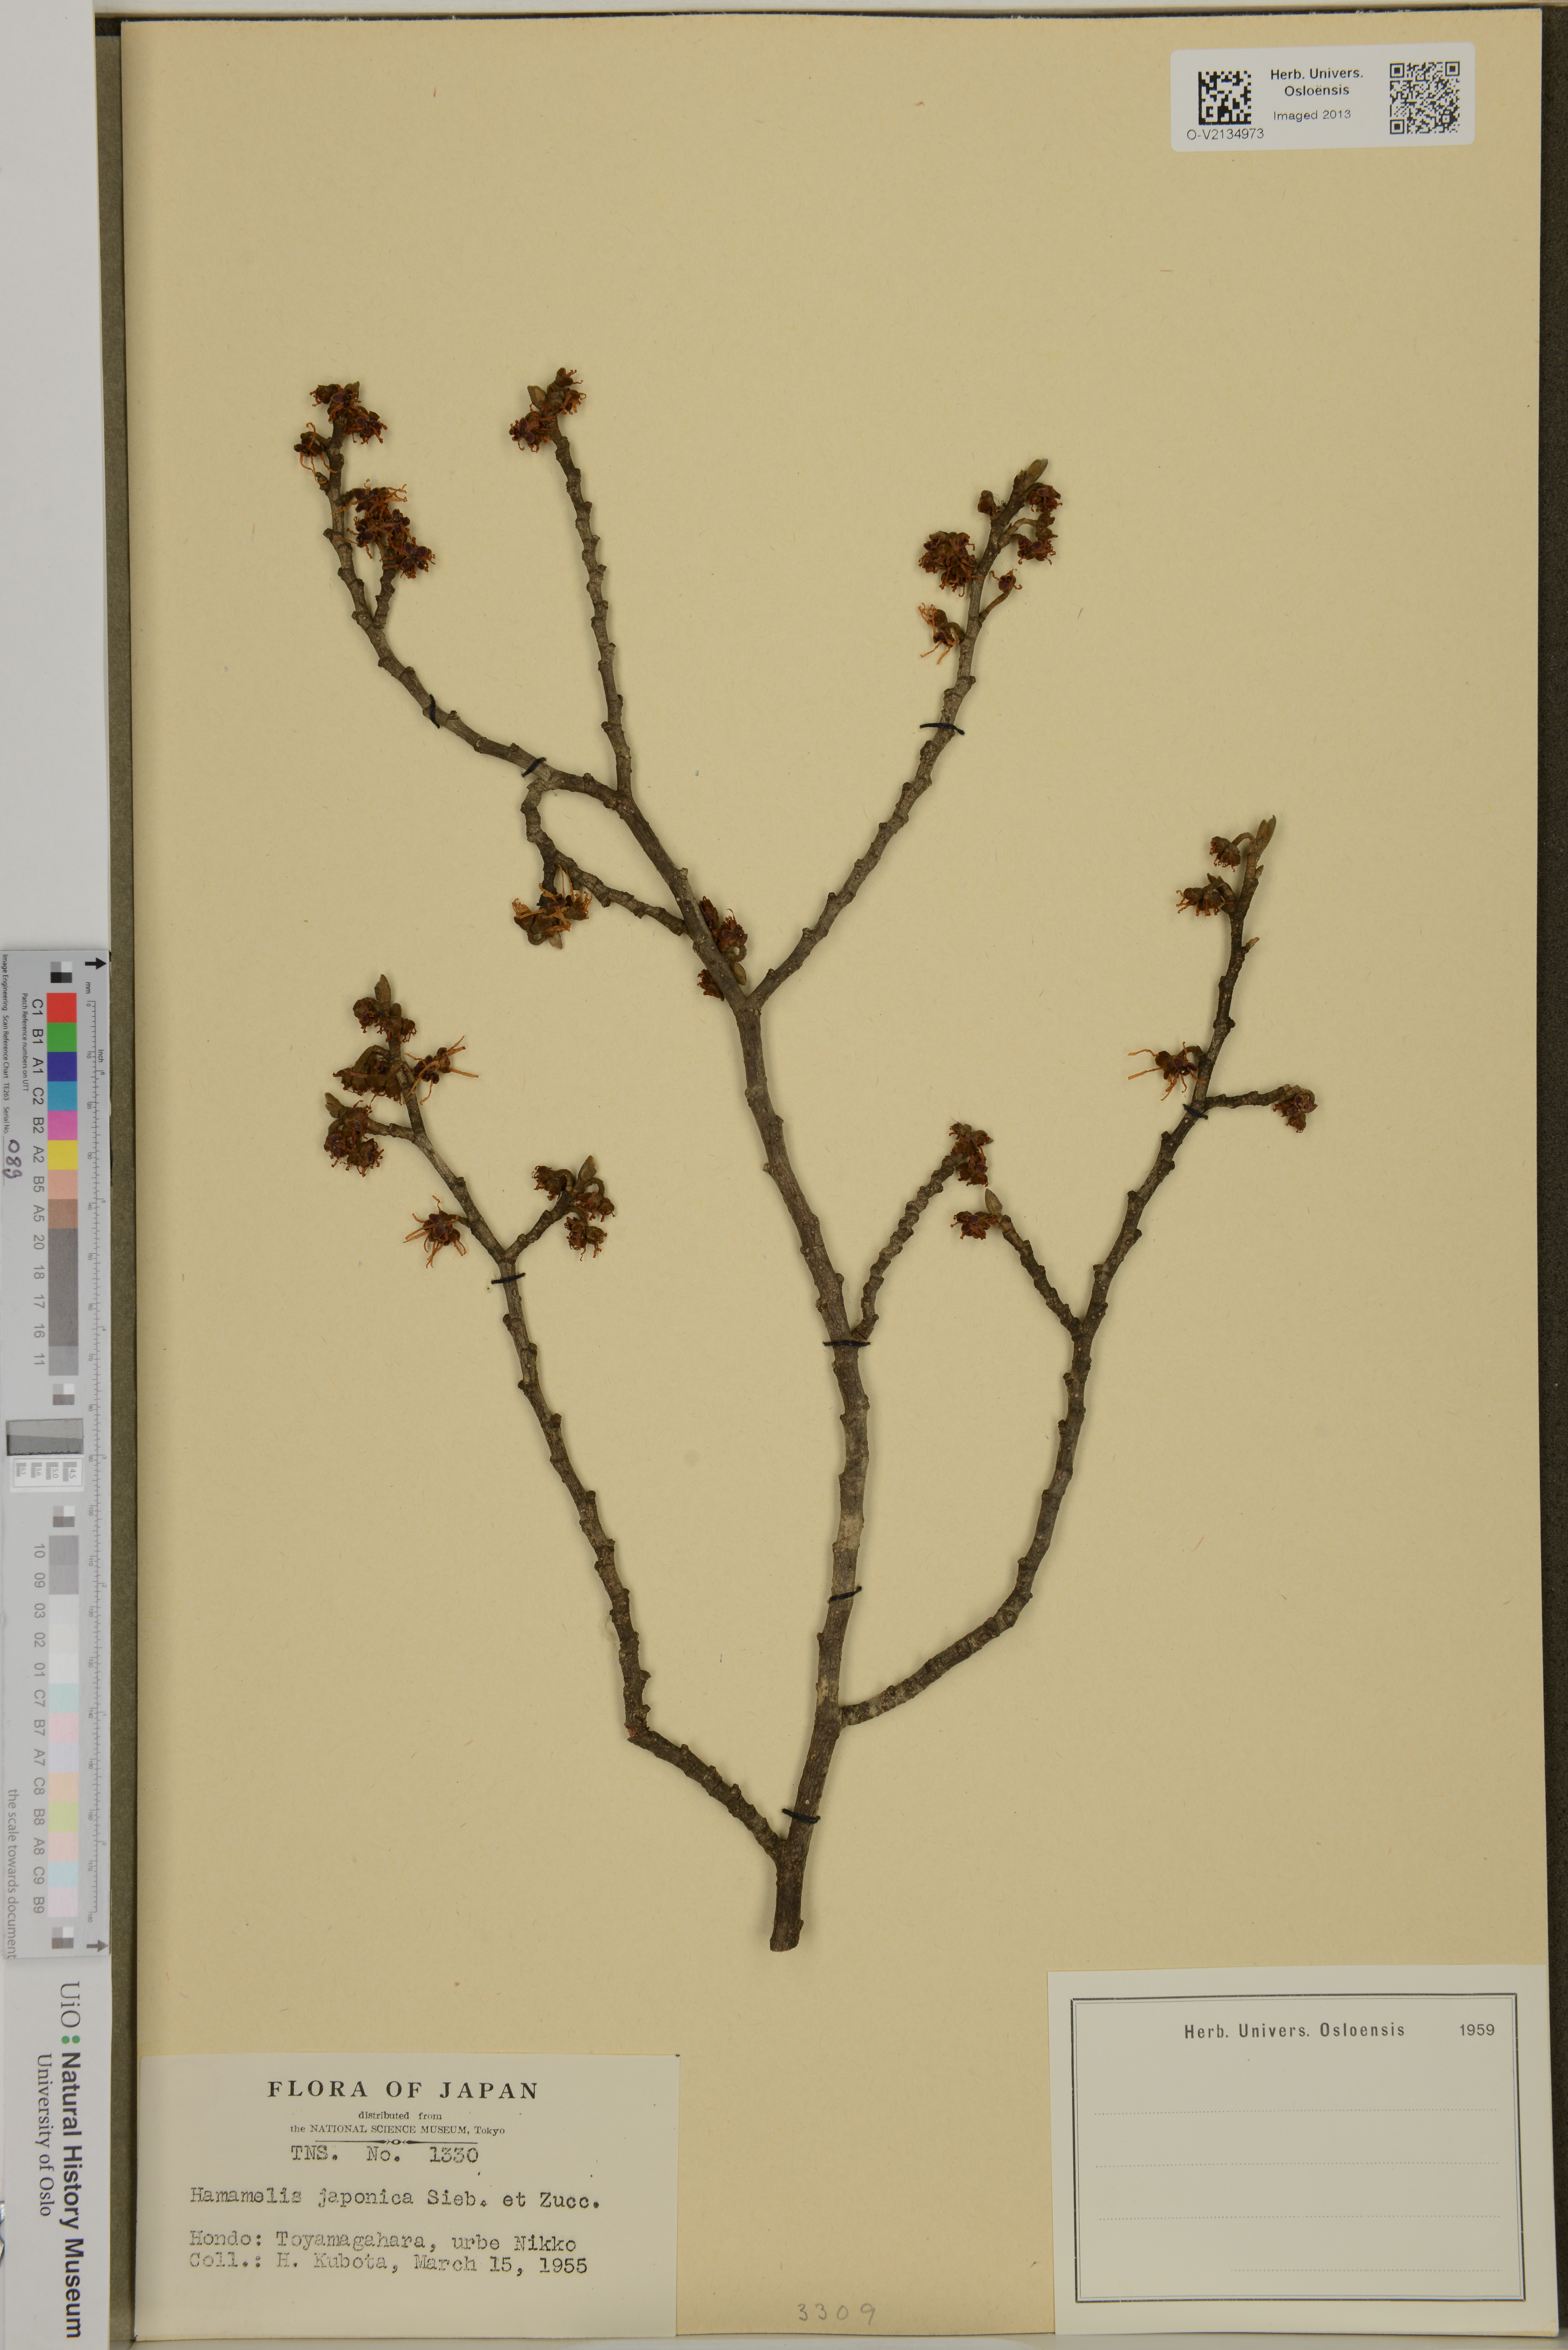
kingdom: Plantae
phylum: Tracheophyta
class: Magnoliopsida
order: Saxifragales
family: Hamamelidaceae
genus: Hamamelis
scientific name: Hamamelis japonica
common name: Japanese witch-hazel
